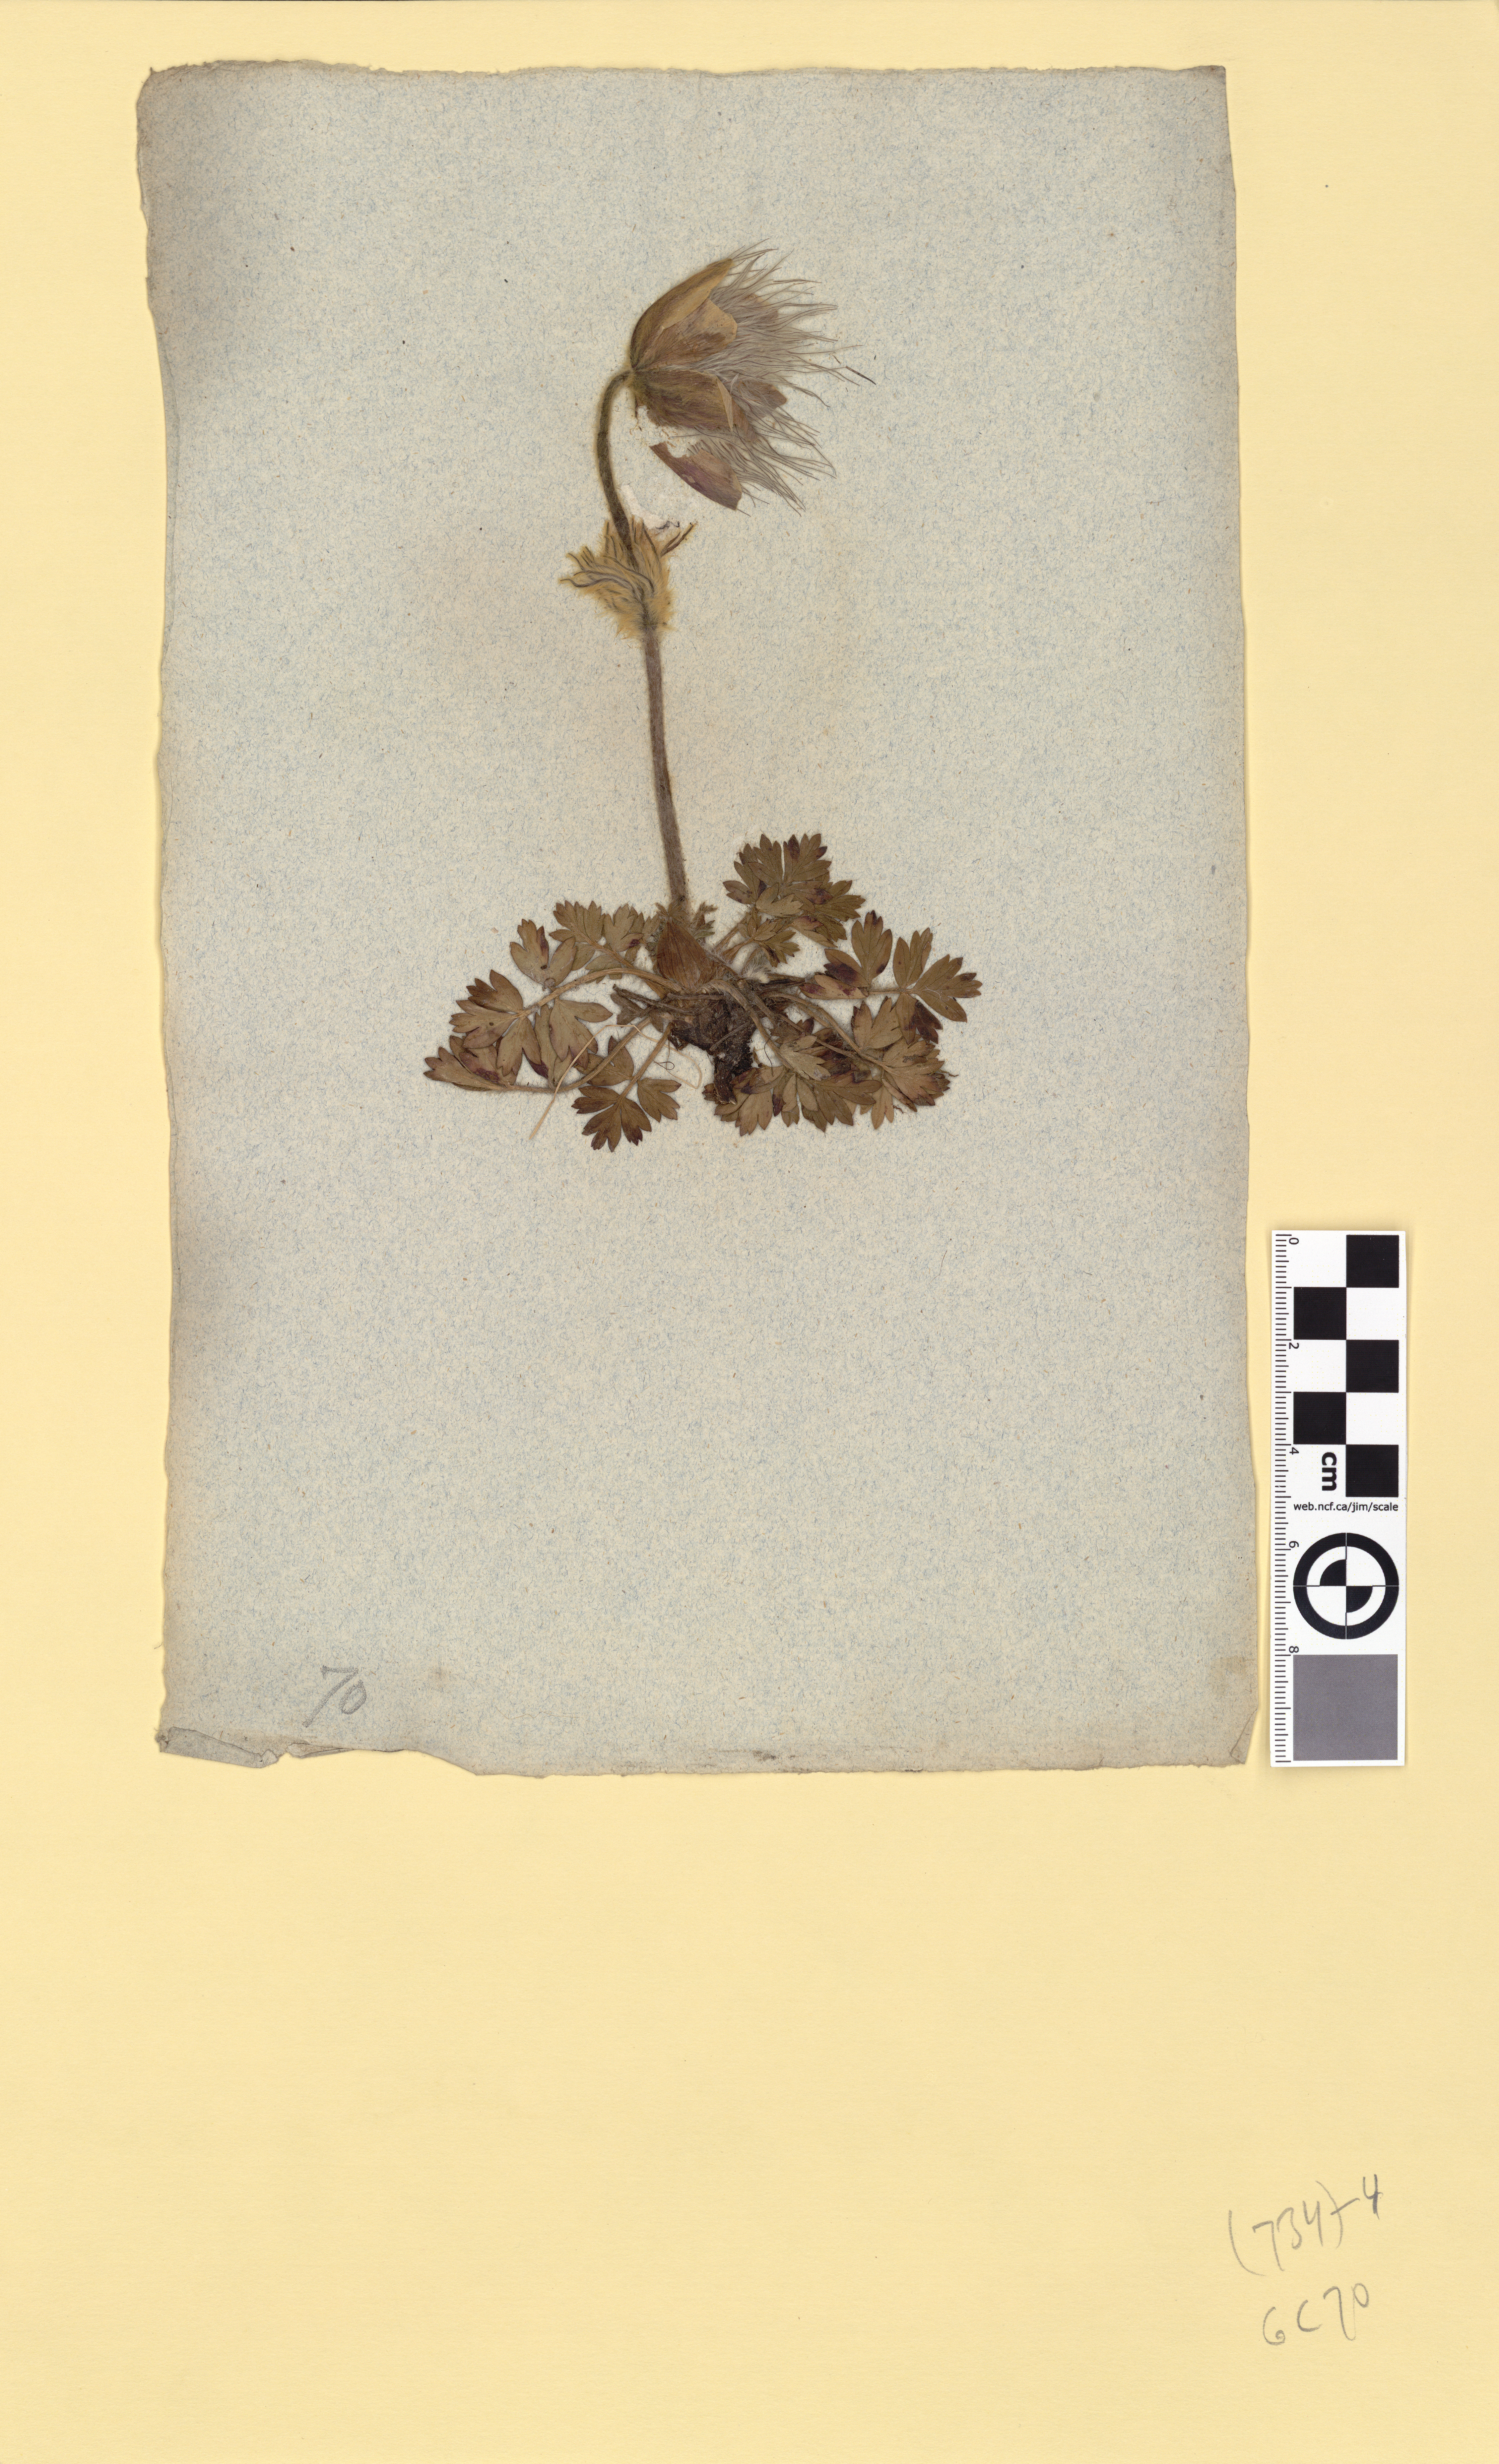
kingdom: Plantae
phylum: Tracheophyta
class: Magnoliopsida
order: Ranunculales
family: Ranunculaceae
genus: Pulsatilla
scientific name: Pulsatilla vernalis
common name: Spring pasque flower
